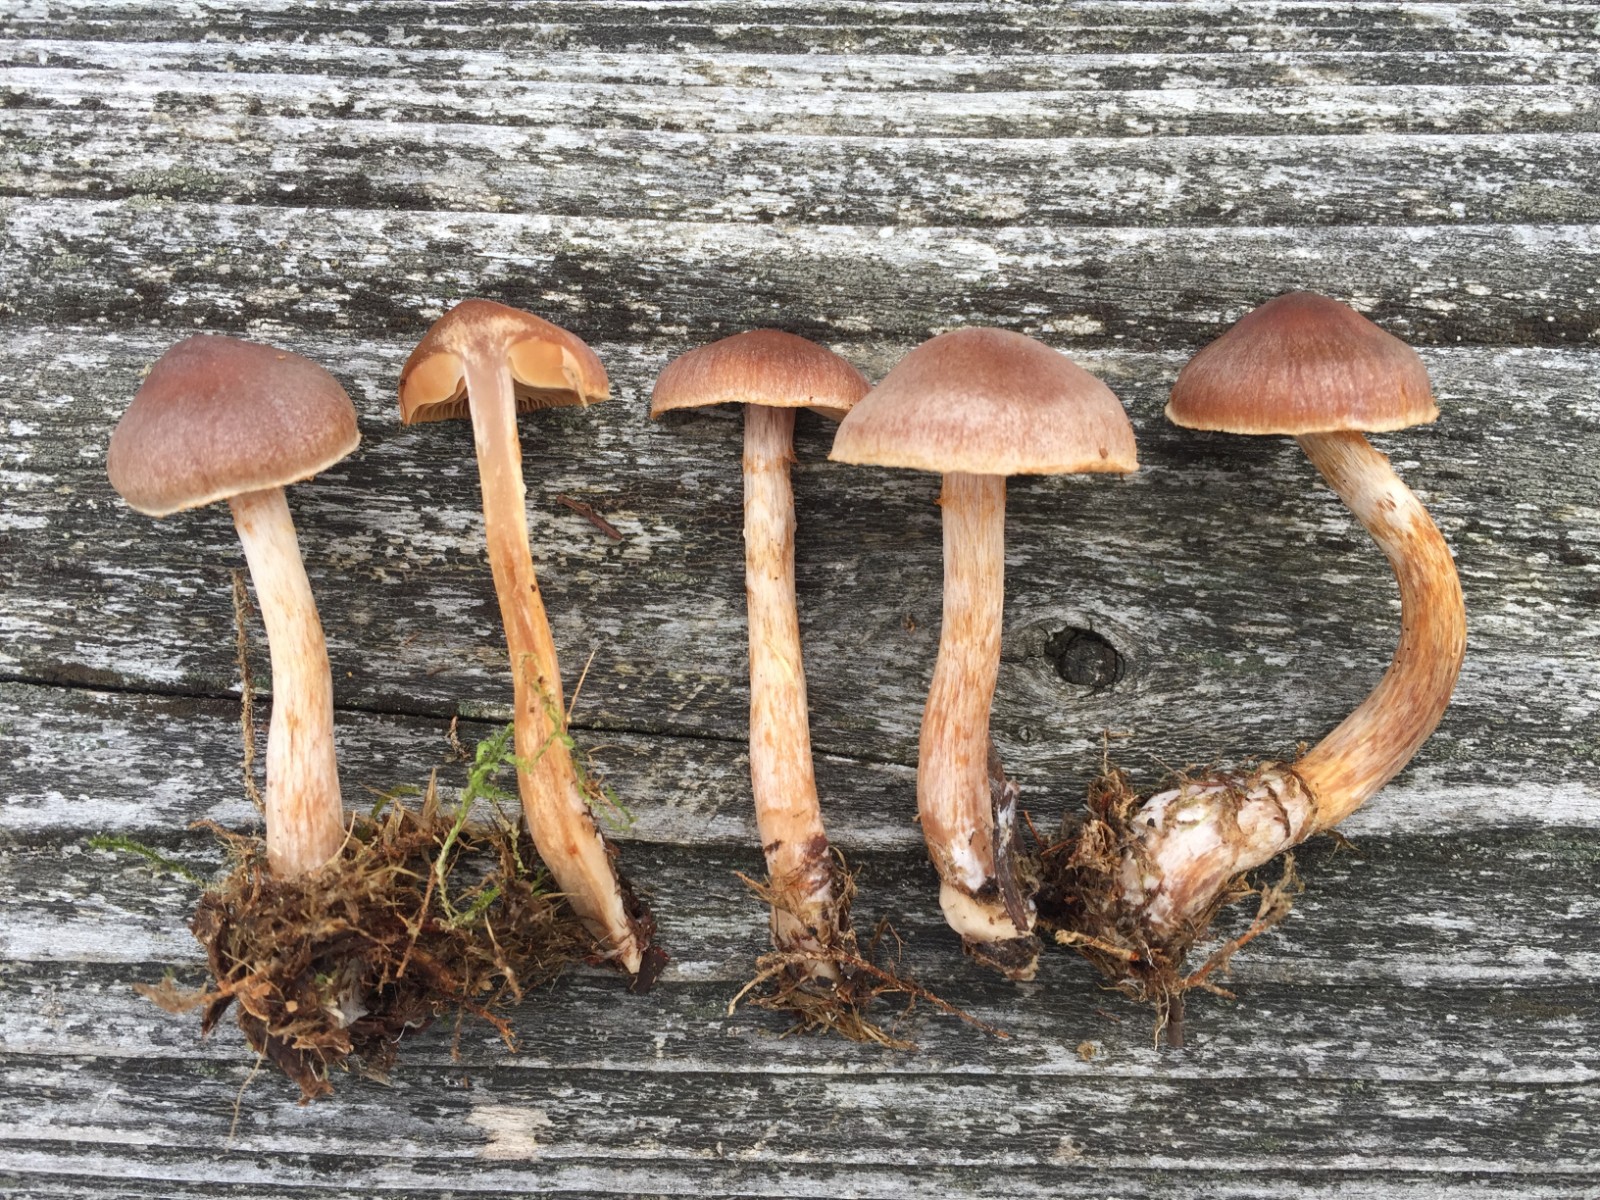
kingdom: Fungi
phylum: Basidiomycota
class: Agaricomycetes
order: Agaricales
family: Cortinariaceae
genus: Cortinarius
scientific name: Cortinarius
